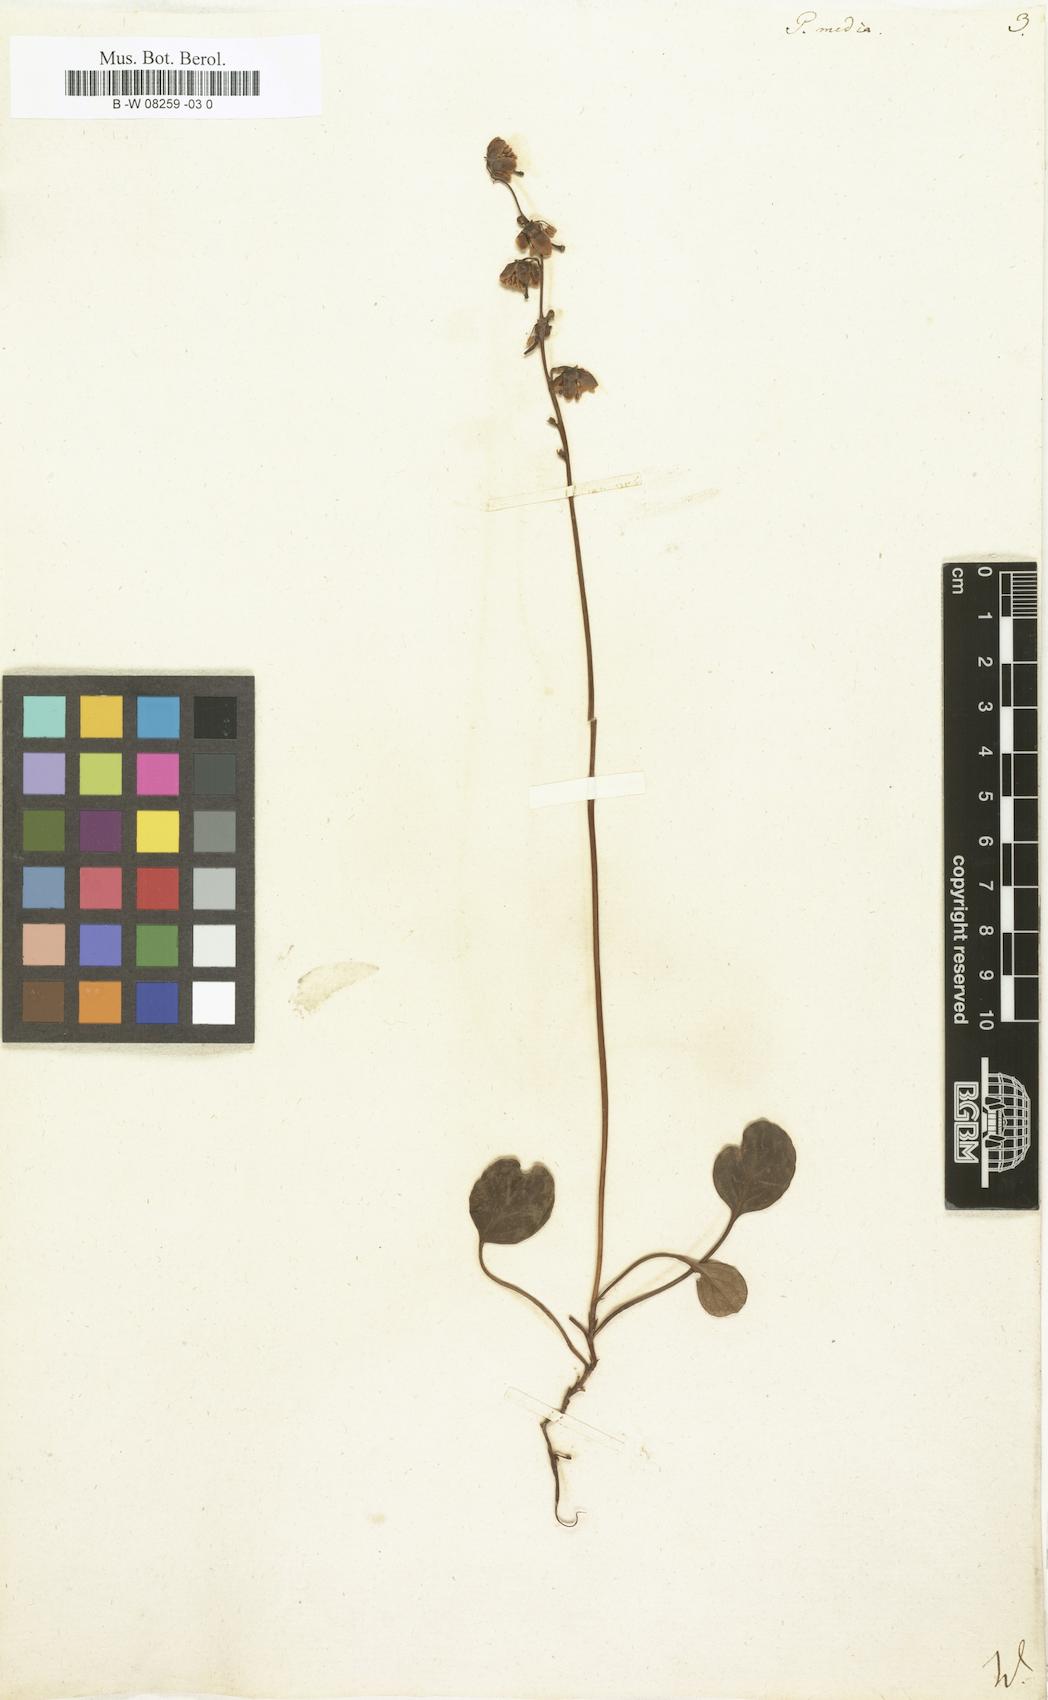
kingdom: Plantae
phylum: Tracheophyta
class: Magnoliopsida
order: Ericales
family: Ericaceae
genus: Pyrola
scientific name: Pyrola media
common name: Intermediate wintergreen
